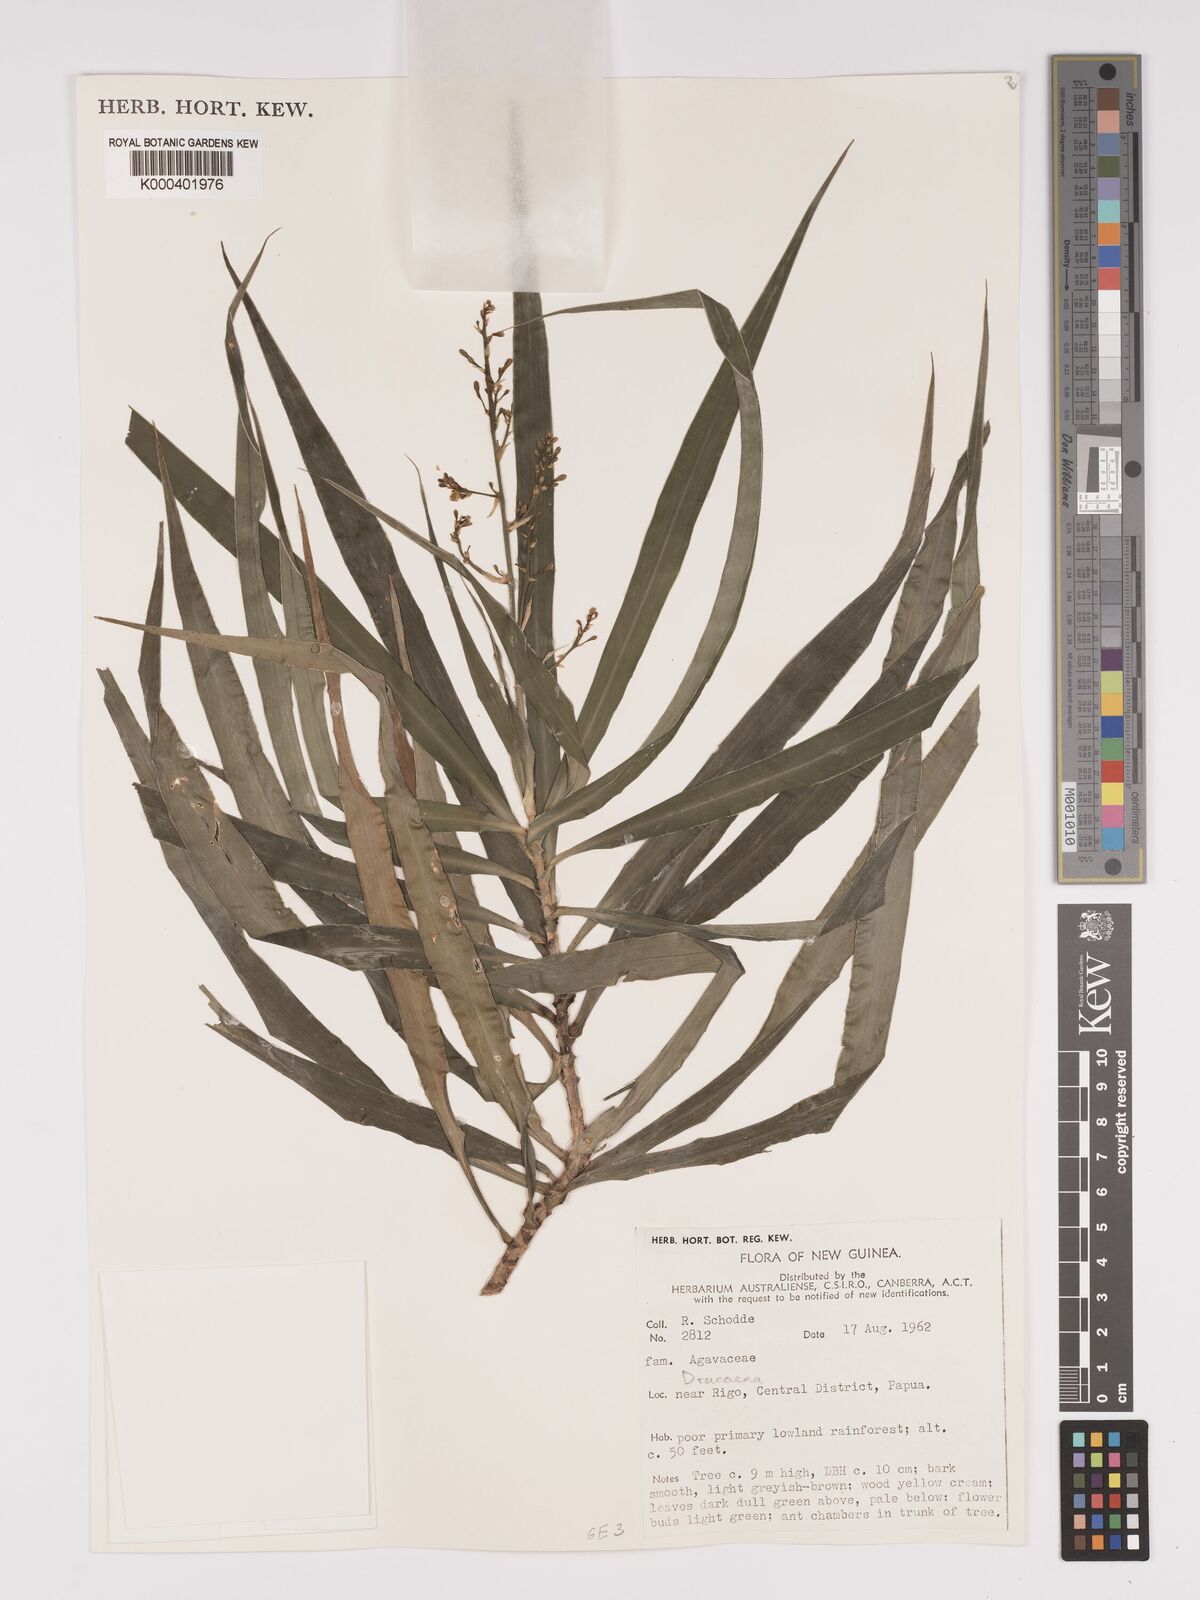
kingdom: Plantae
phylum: Tracheophyta
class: Liliopsida
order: Asparagales
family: Asparagaceae
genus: Dracaena
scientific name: Dracaena angustifolia
